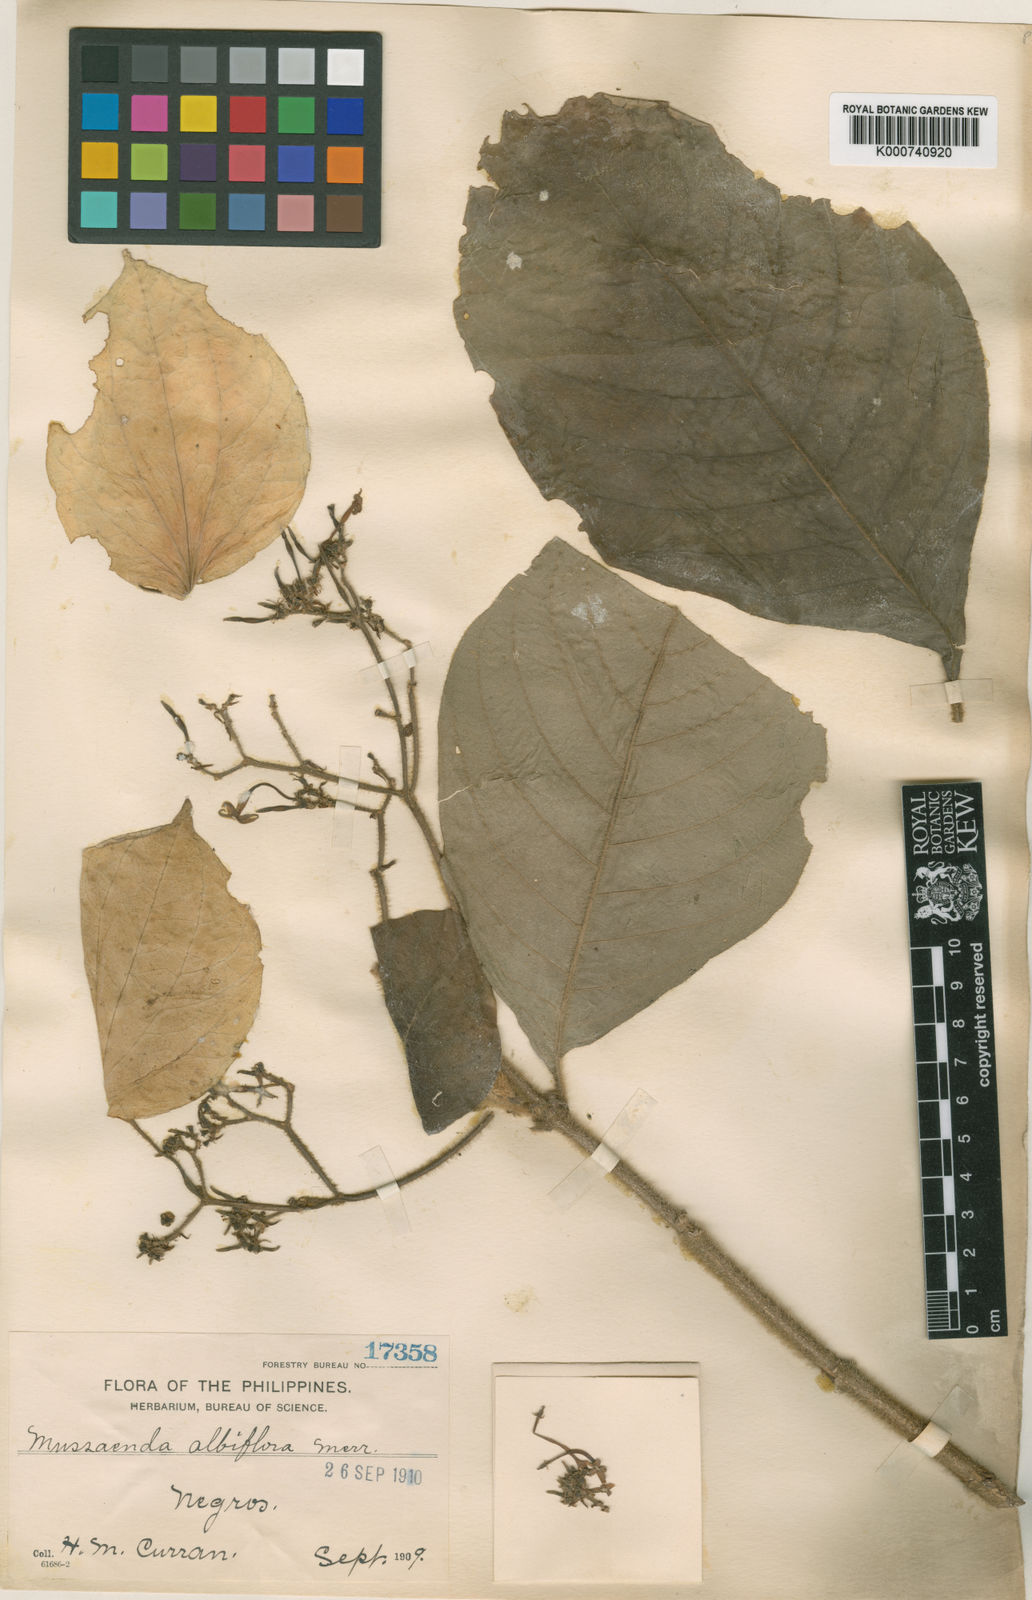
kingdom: Plantae
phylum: Tracheophyta
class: Magnoliopsida
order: Gentianales
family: Rubiaceae
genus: Mussaenda
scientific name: Mussaenda albiflora
